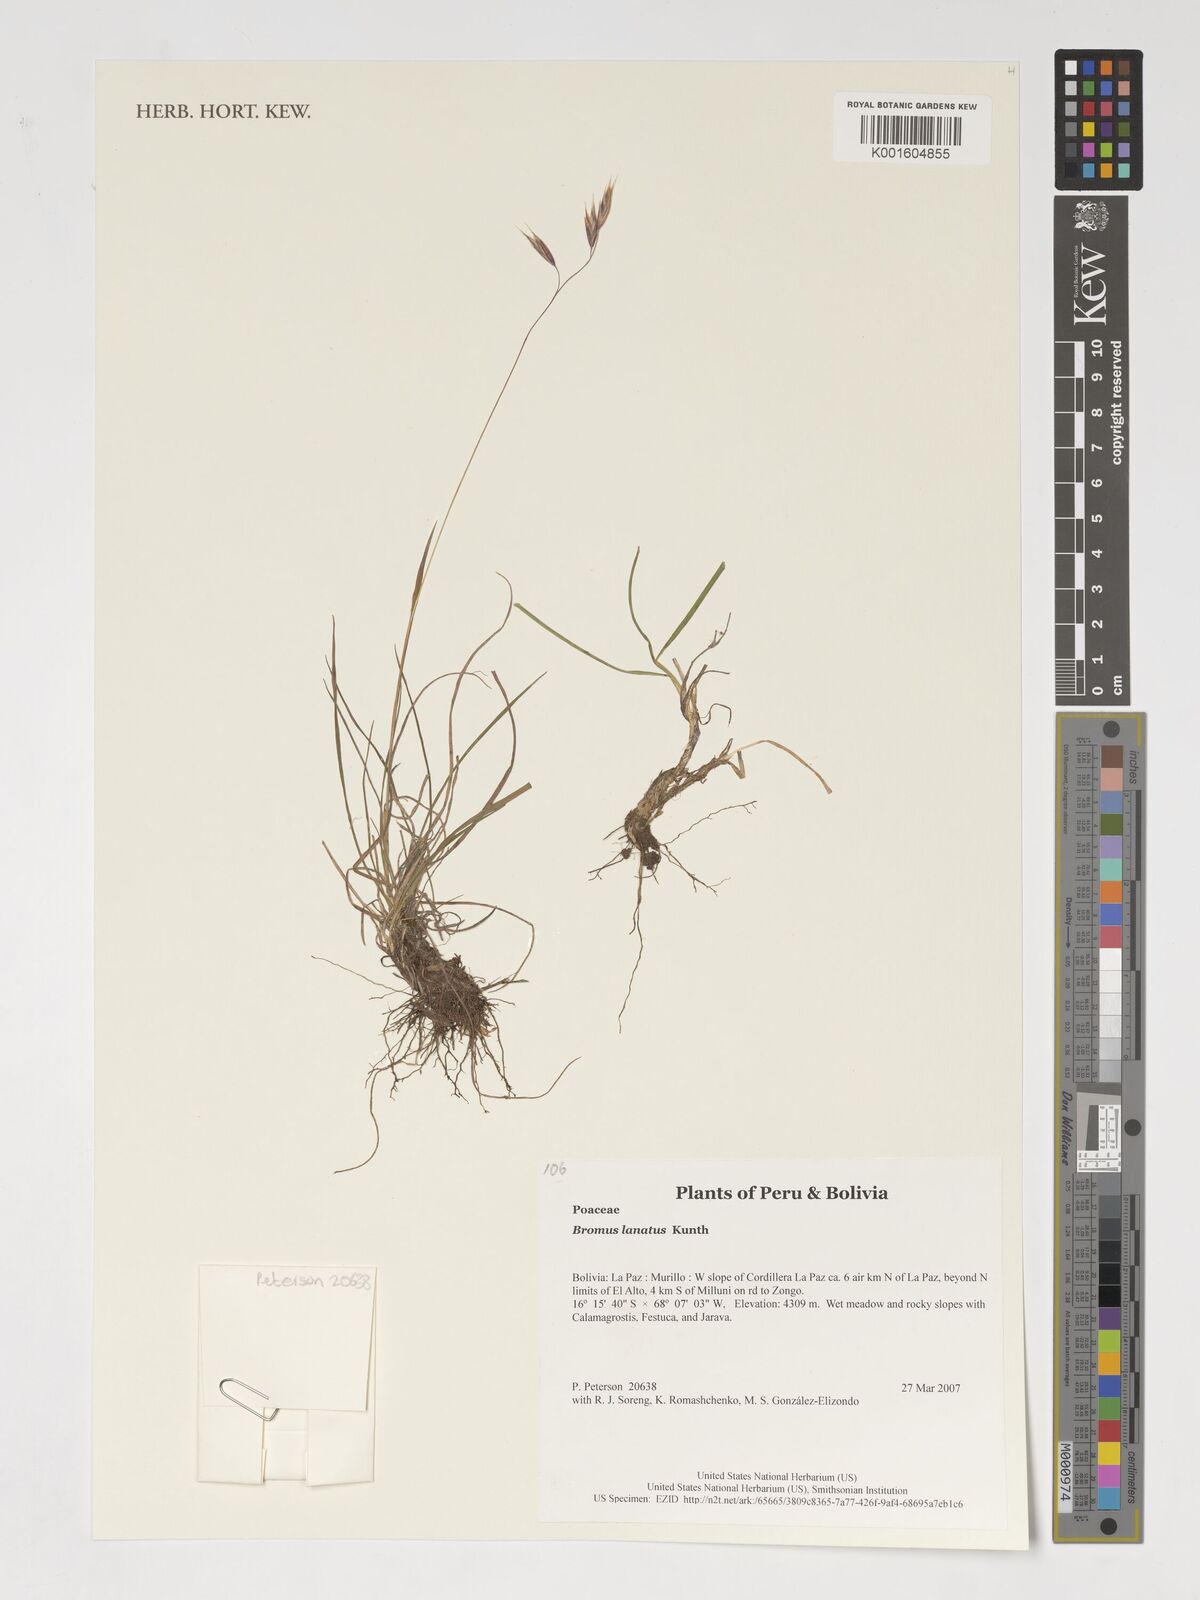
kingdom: Plantae
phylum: Tracheophyta
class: Liliopsida
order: Poales
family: Poaceae
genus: Bromus
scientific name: Bromus lanatus
